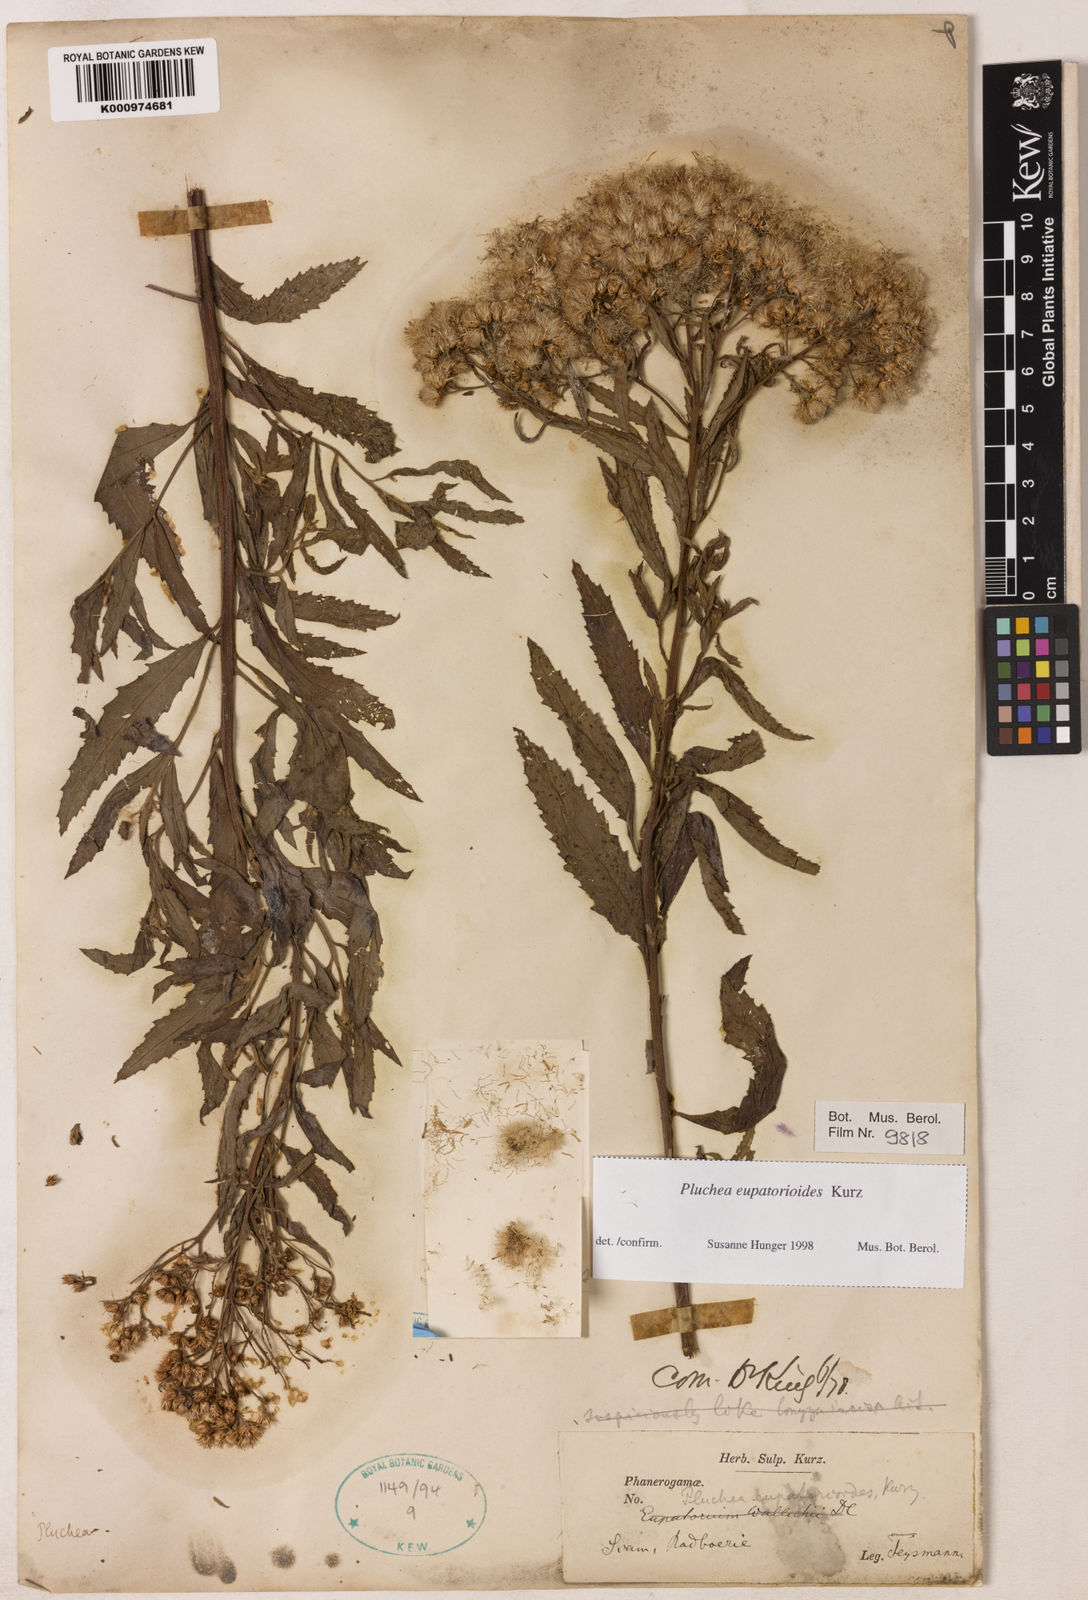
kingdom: Plantae
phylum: Tracheophyta
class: Magnoliopsida
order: Asterales
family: Asteraceae
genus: Pluchea
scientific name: Pluchea eupatorioides
